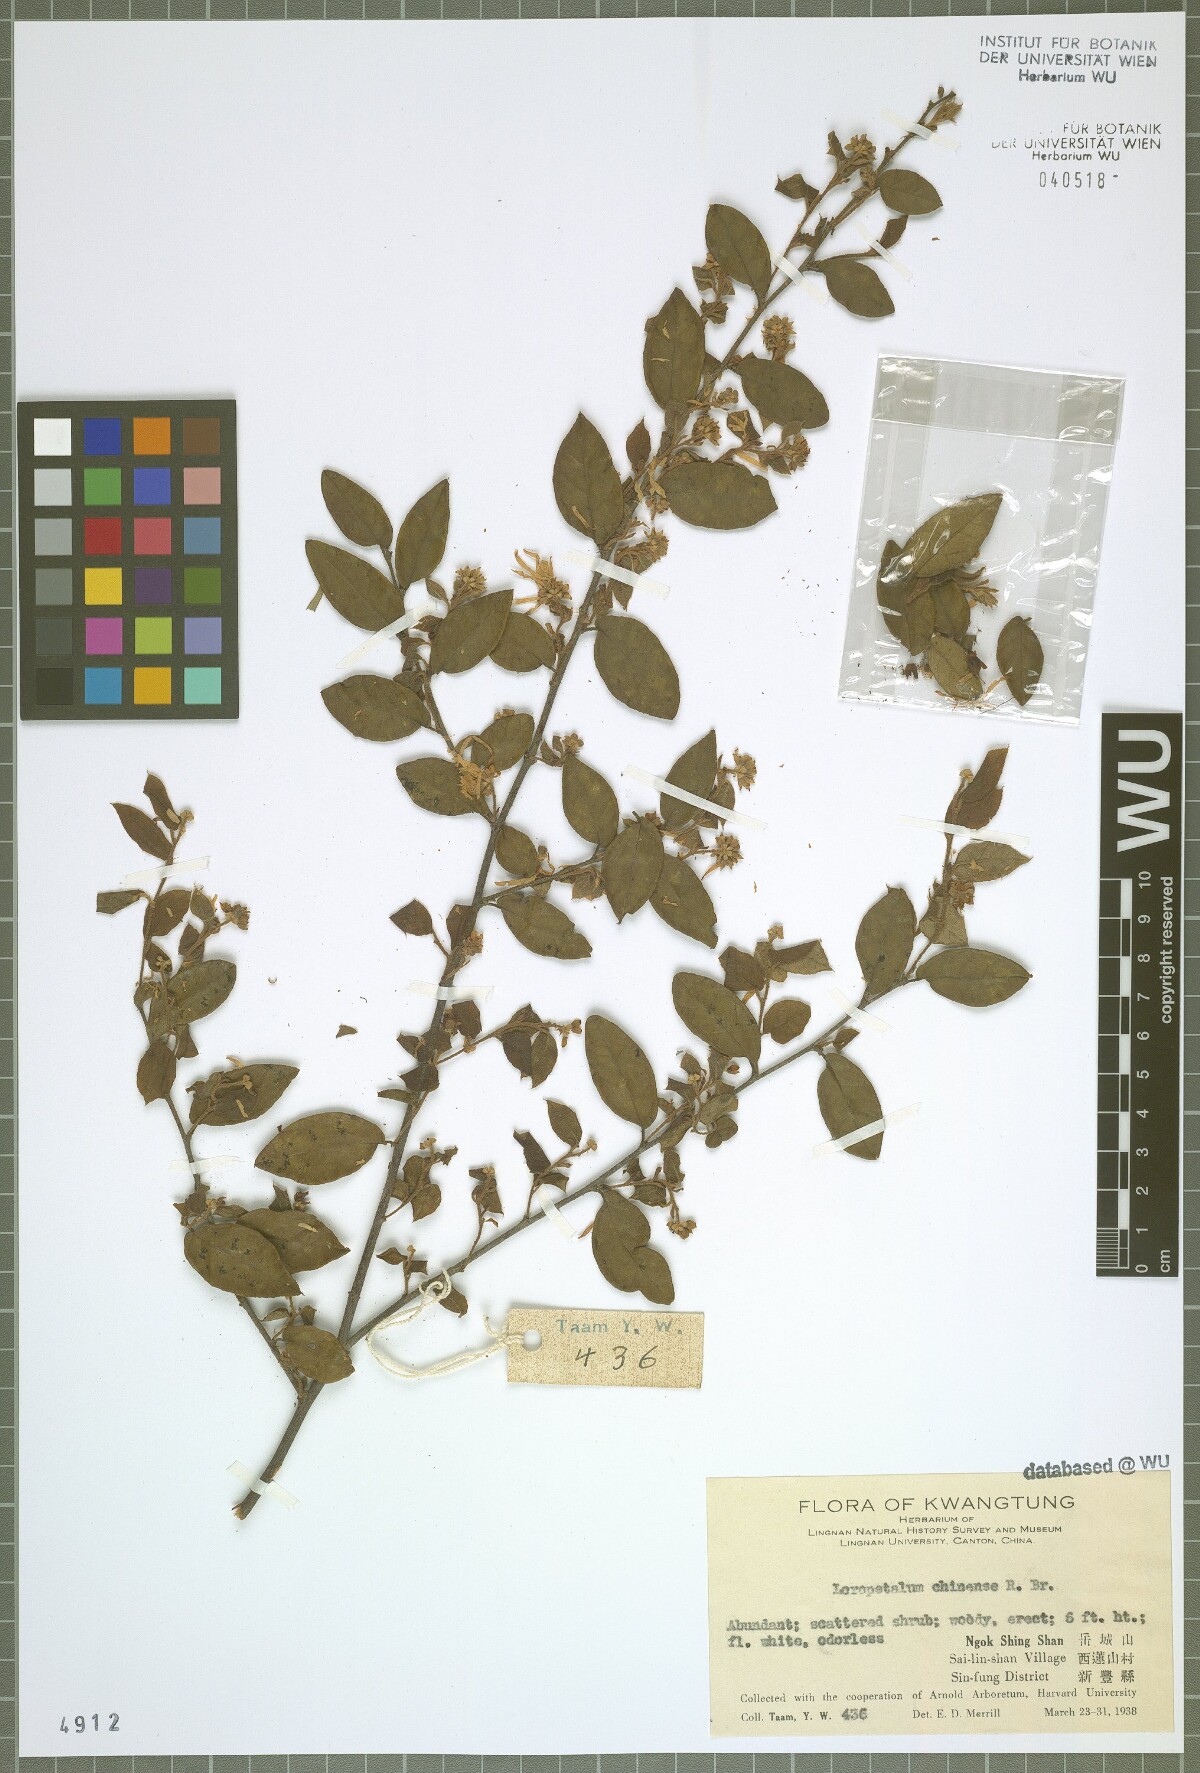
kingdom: Plantae
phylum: Tracheophyta
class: Magnoliopsida
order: Saxifragales
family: Hamamelidaceae
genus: Loropetalum
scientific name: Loropetalum chinense
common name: Chinese fringe flower
